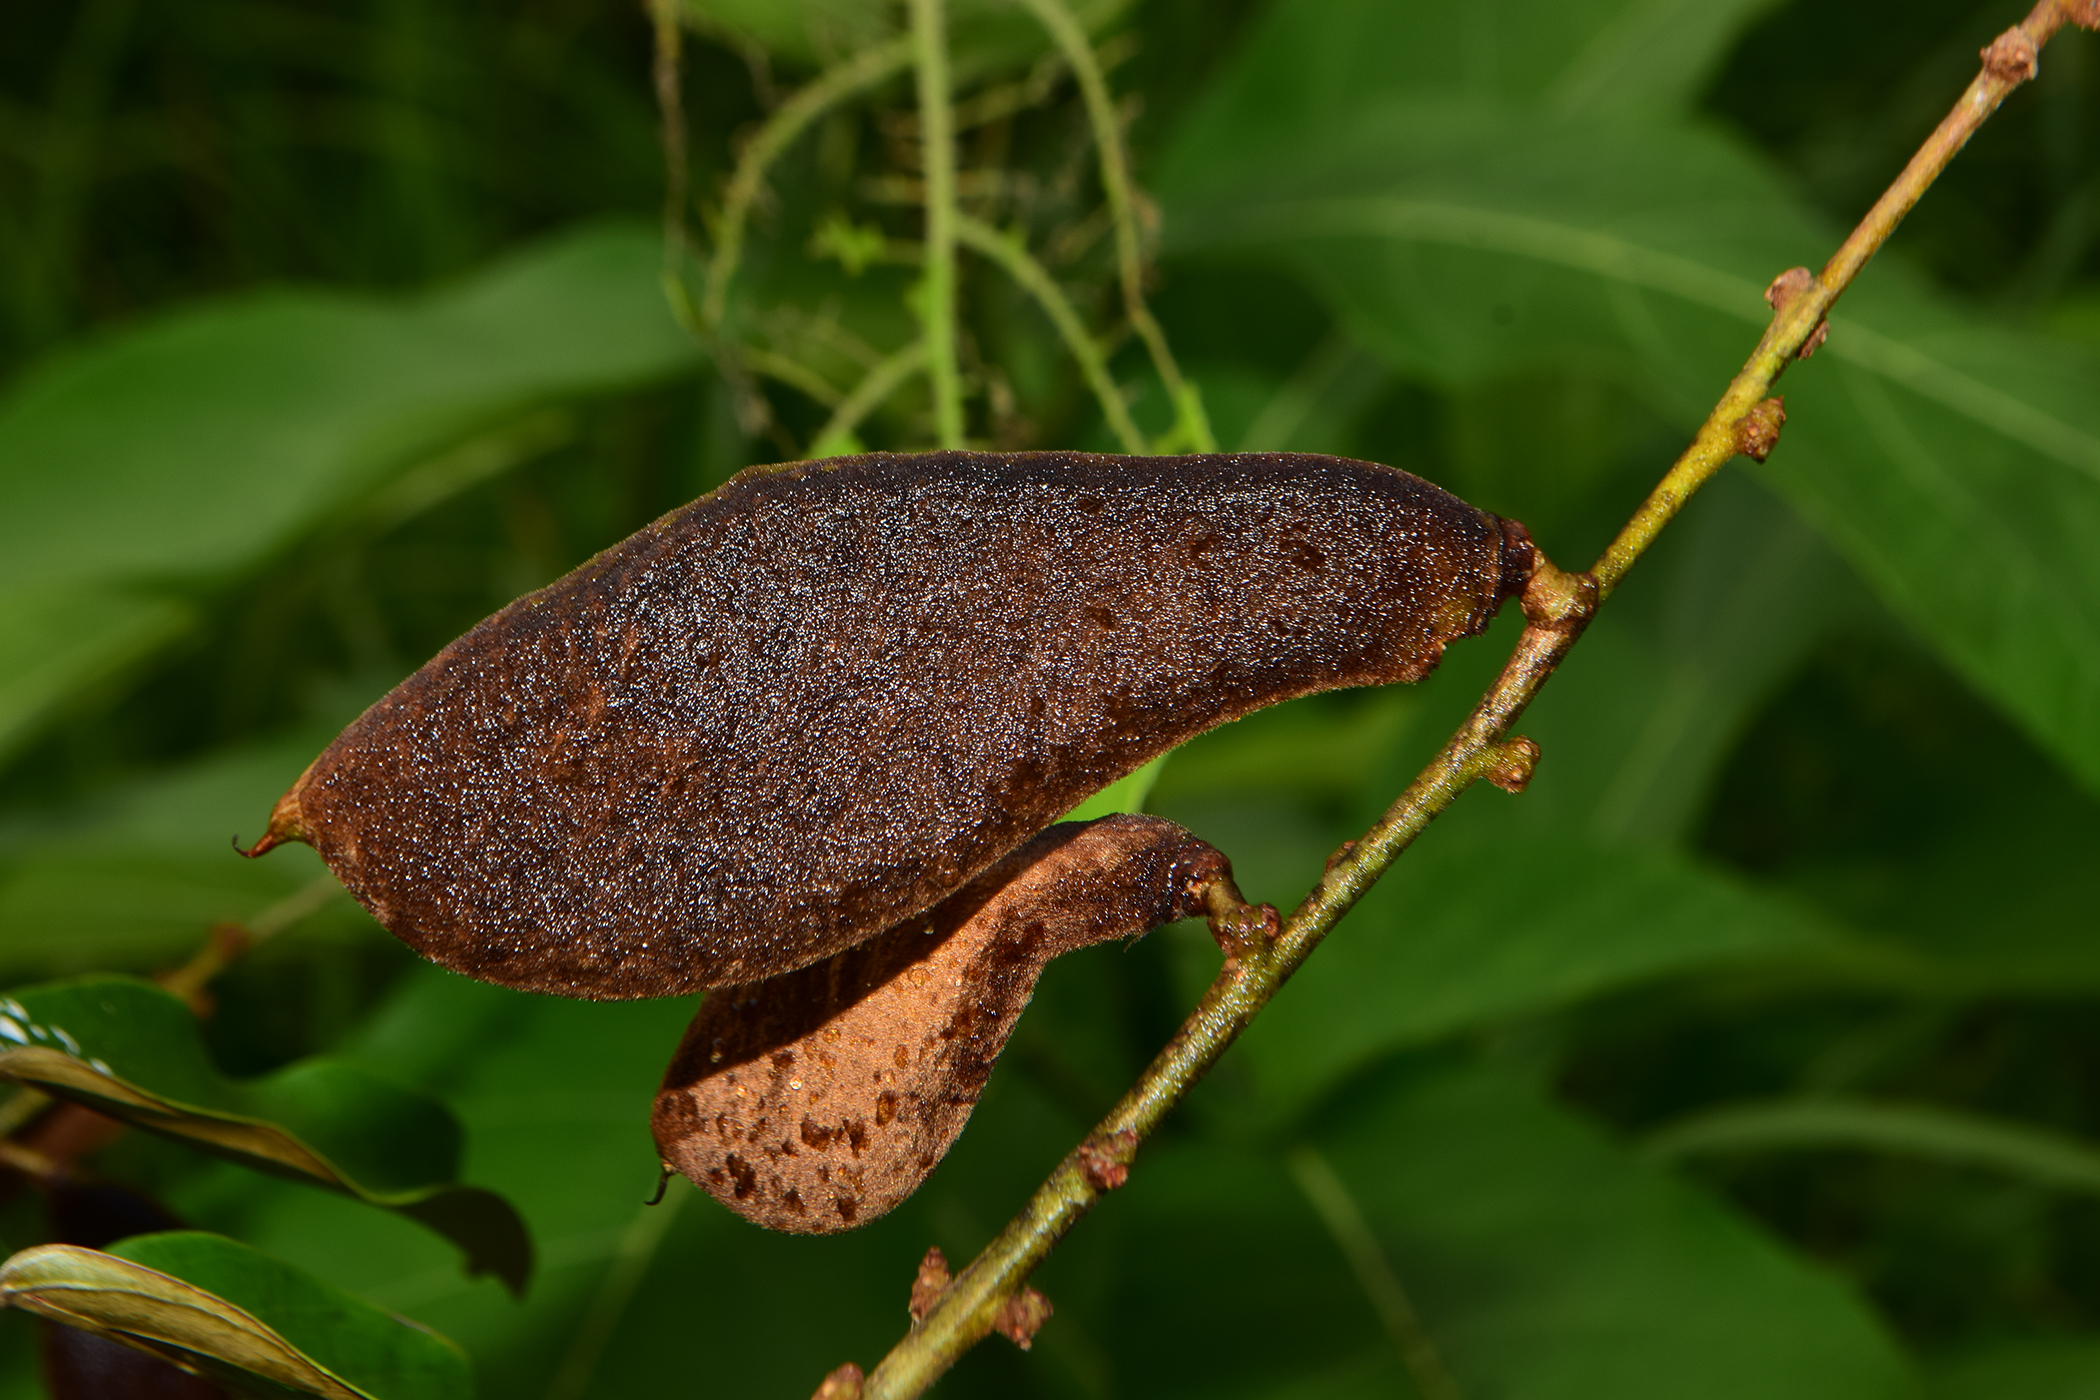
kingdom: Plantae
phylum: Tracheophyta
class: Magnoliopsida
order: Fabales
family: Fabaceae
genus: Millettia
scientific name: Millettia sericea
